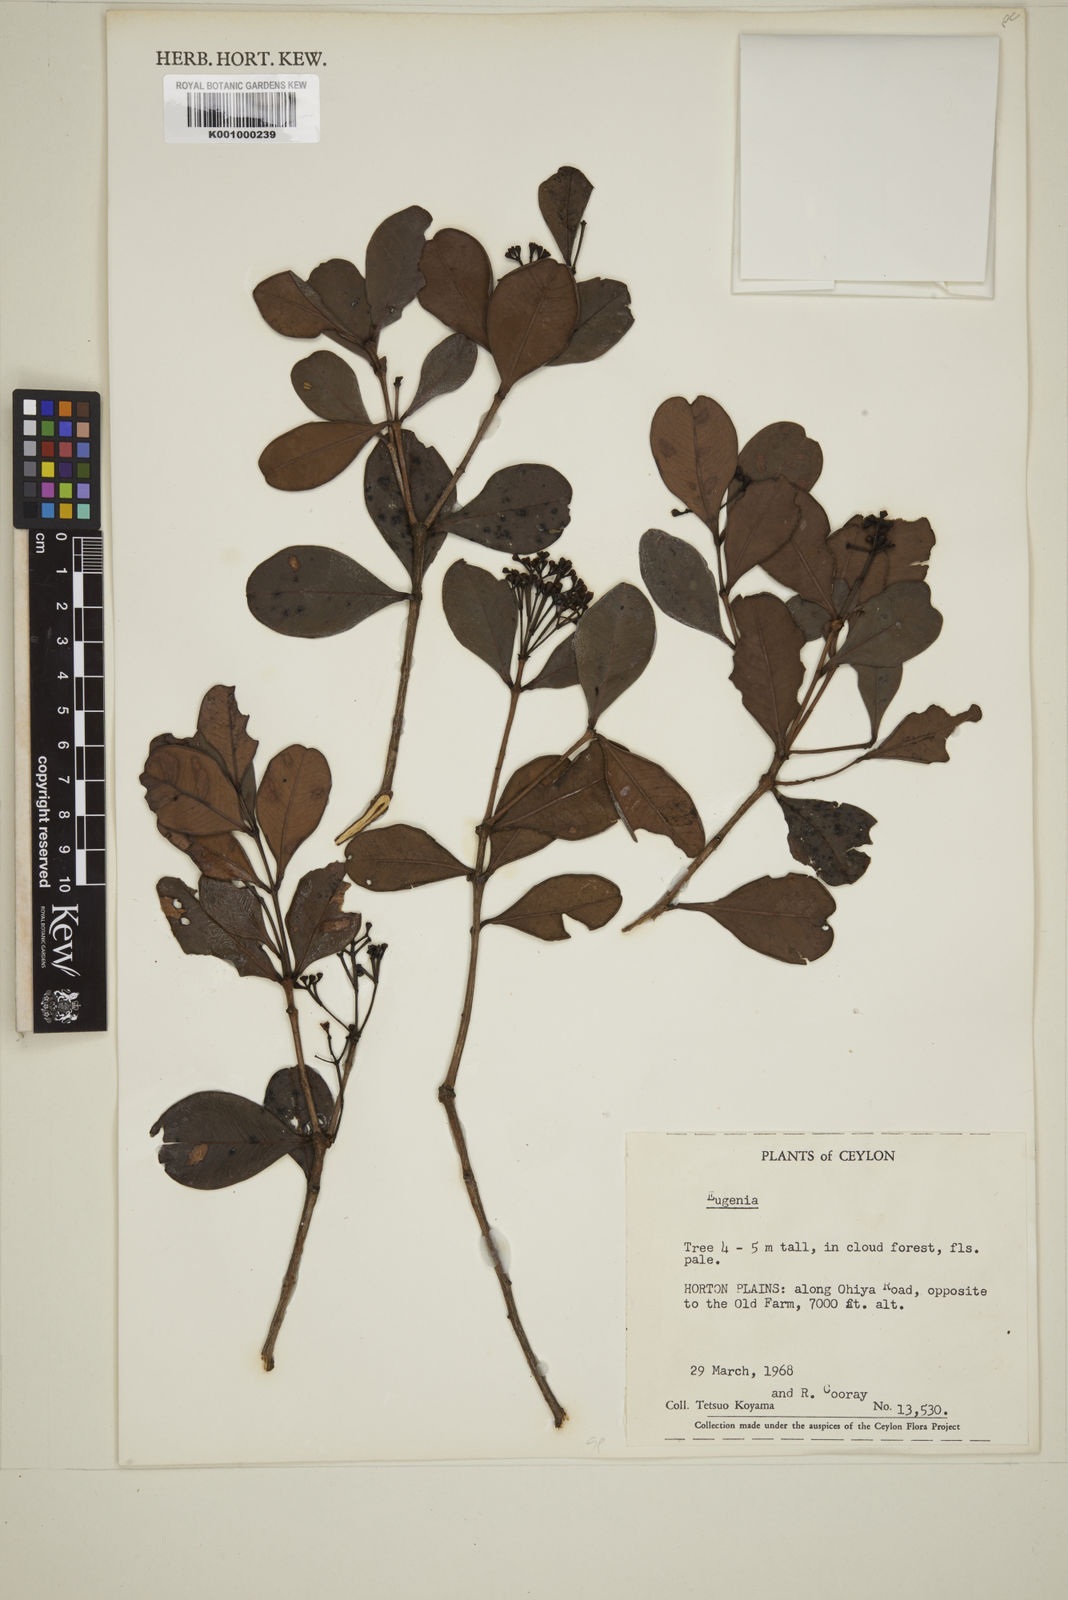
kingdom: Plantae
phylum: Tracheophyta
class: Magnoliopsida
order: Myrtales
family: Myrtaceae
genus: Eugenia
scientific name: Eugenia
